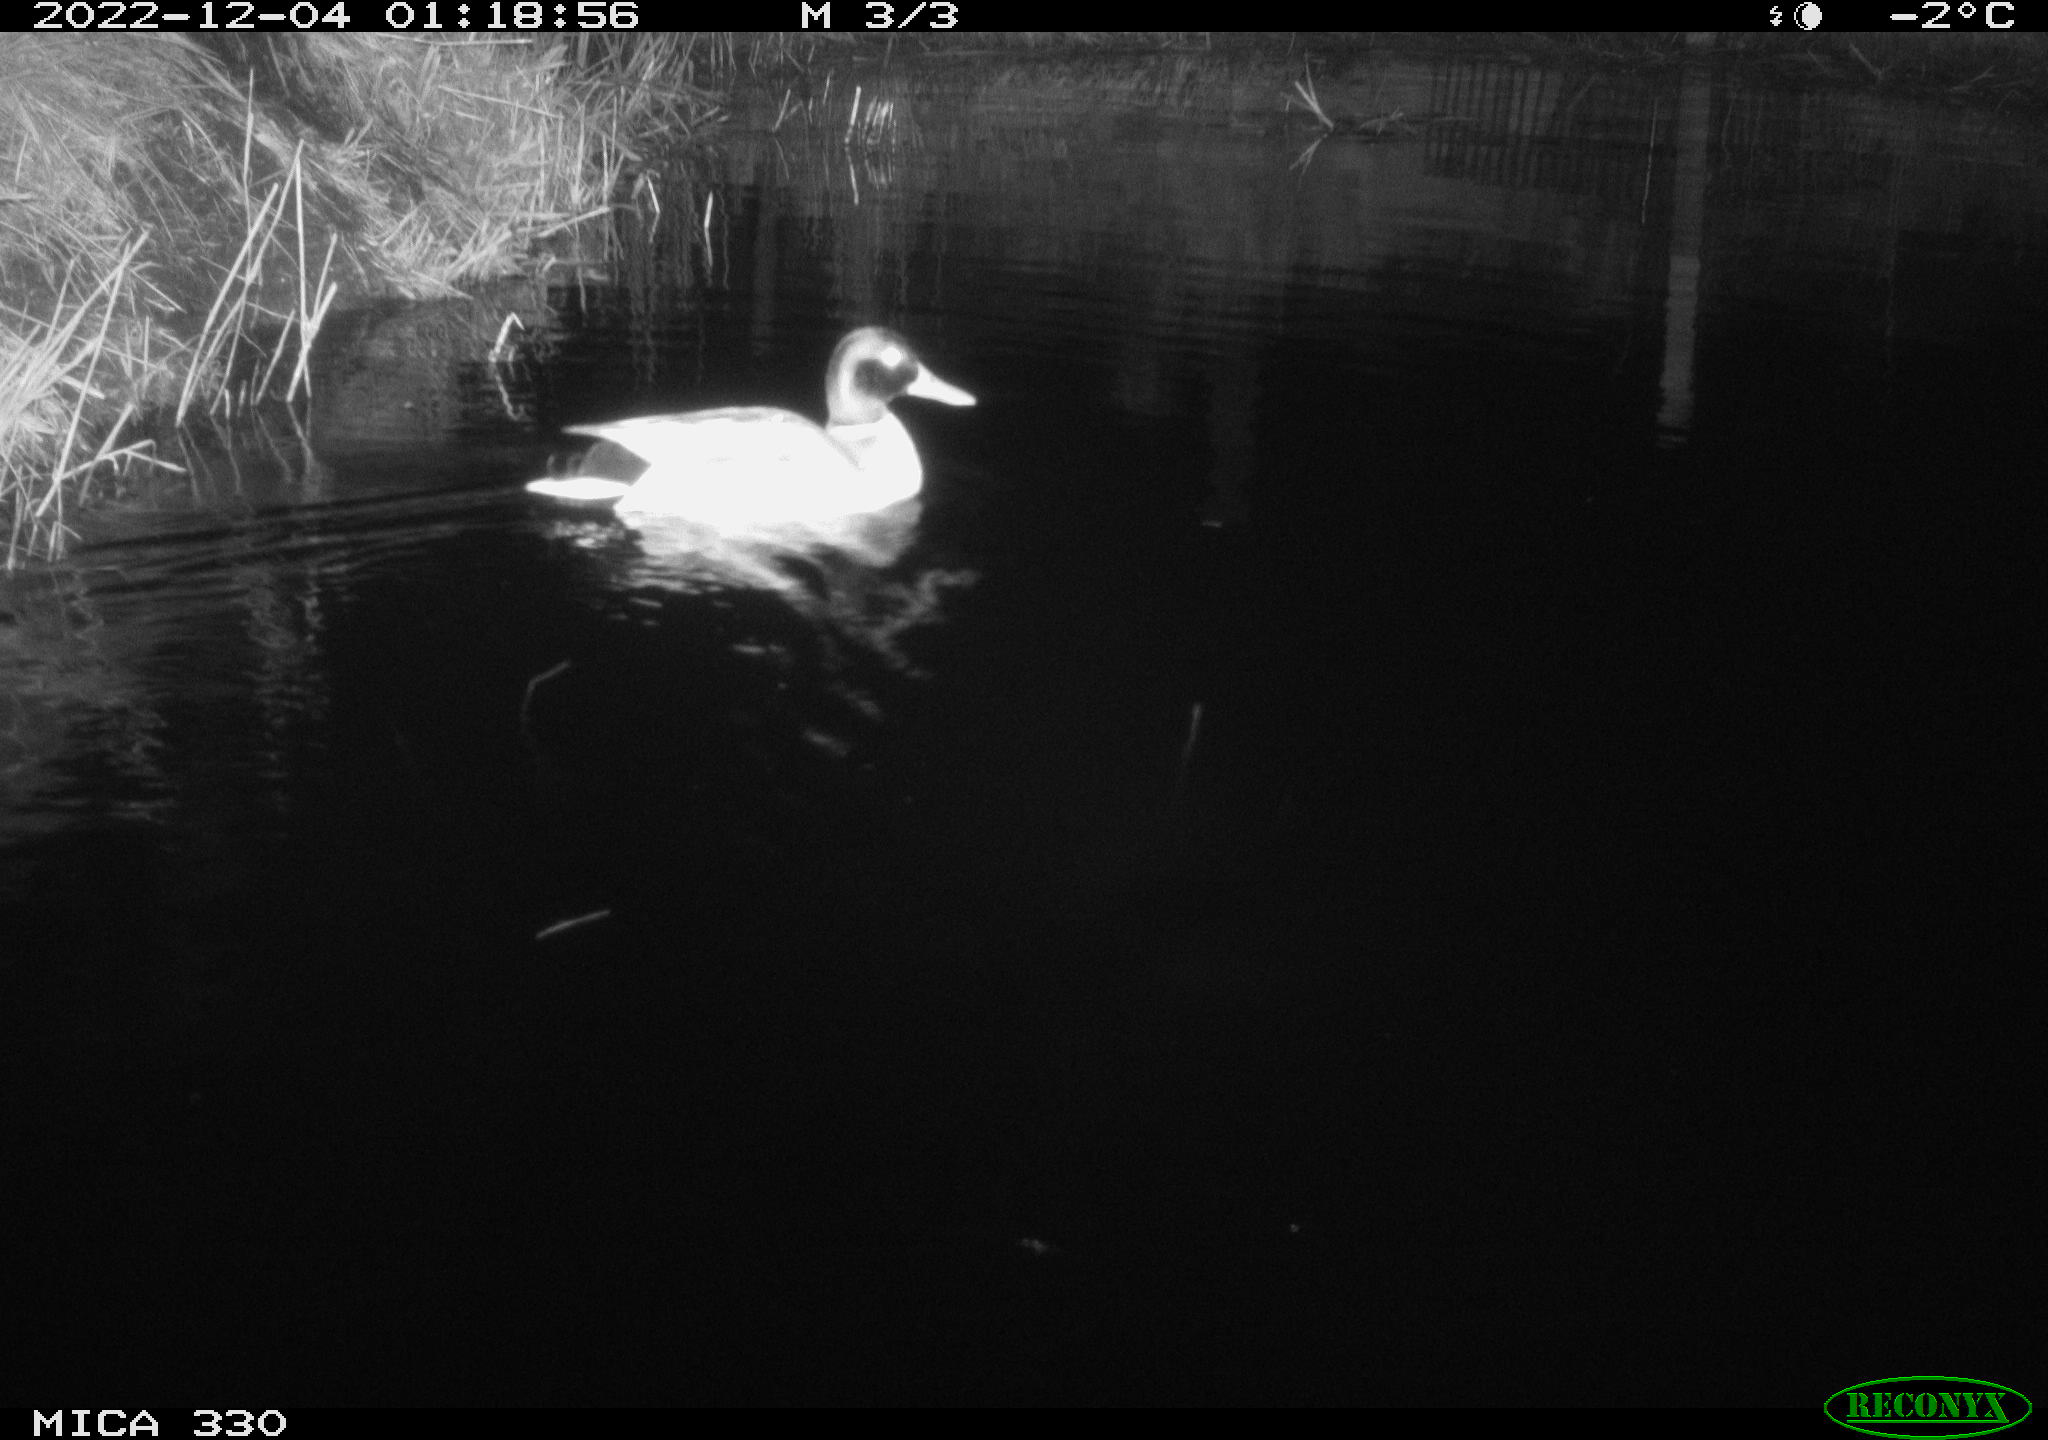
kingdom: Animalia
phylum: Chordata
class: Aves
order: Anseriformes
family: Anatidae
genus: Anas
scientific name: Anas
